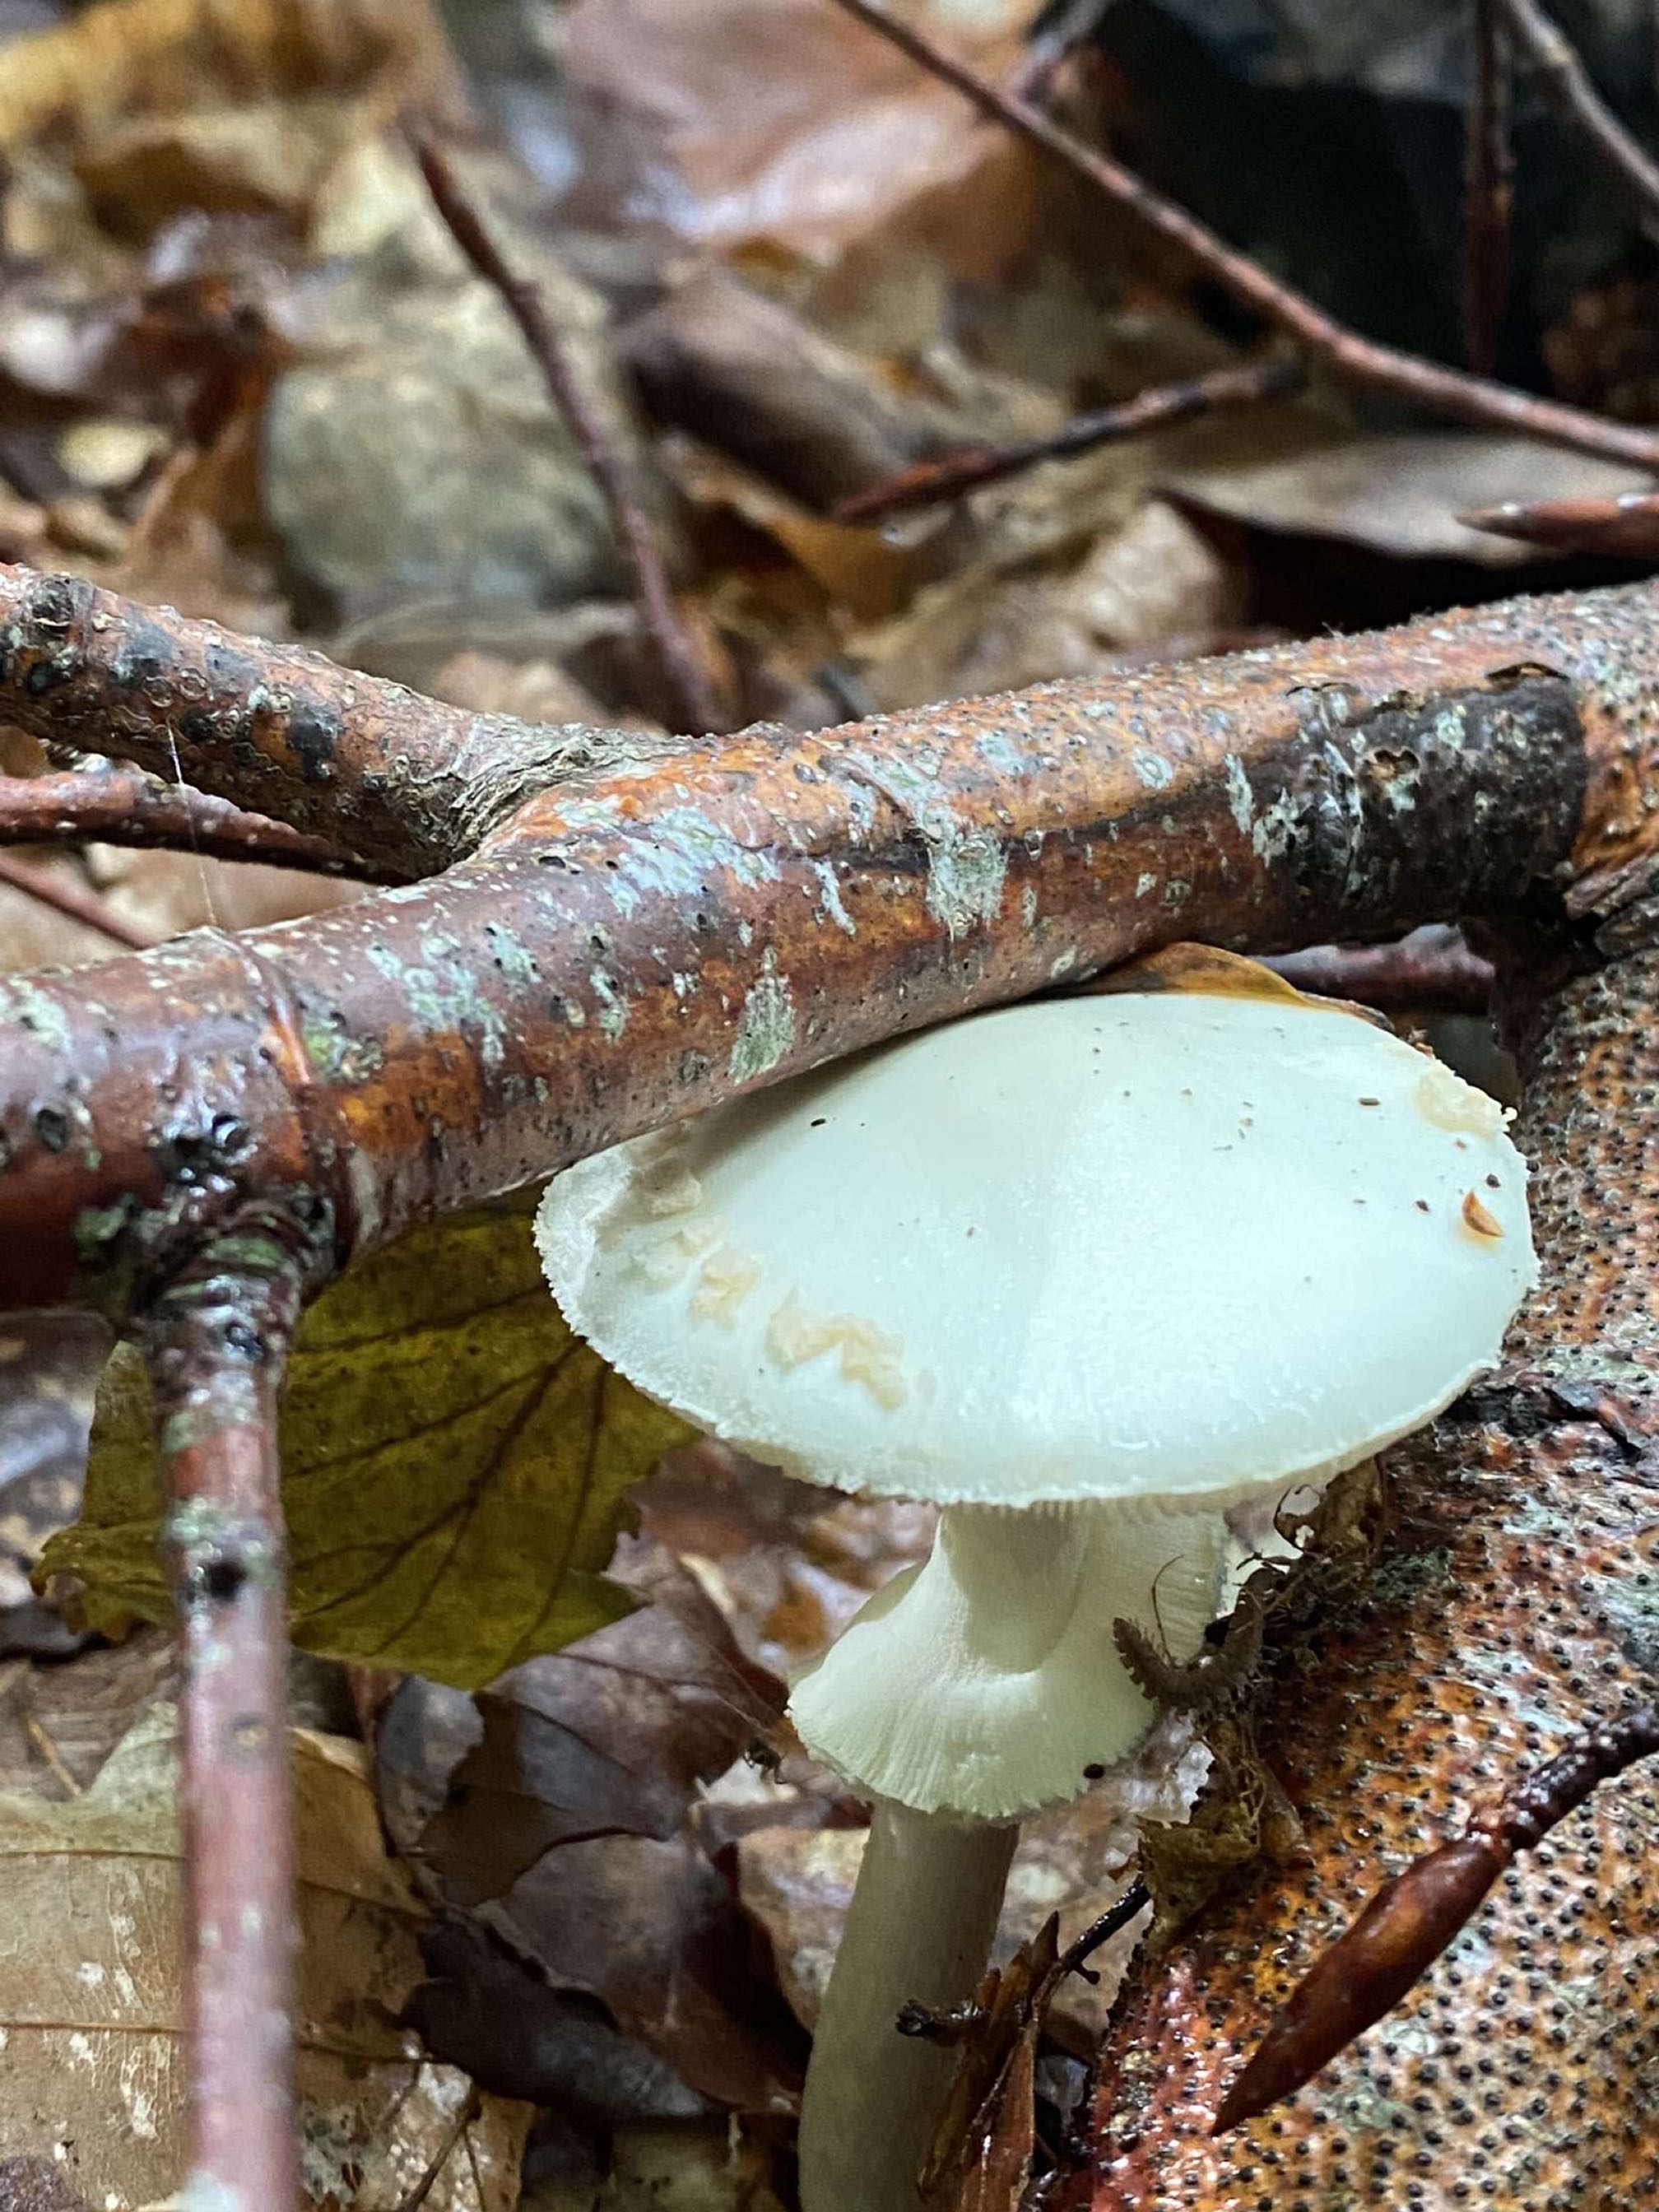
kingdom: Fungi
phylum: Basidiomycota
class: Agaricomycetes
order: Agaricales
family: Amanitaceae
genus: Amanita
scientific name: Amanita citrina
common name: False death-cap
